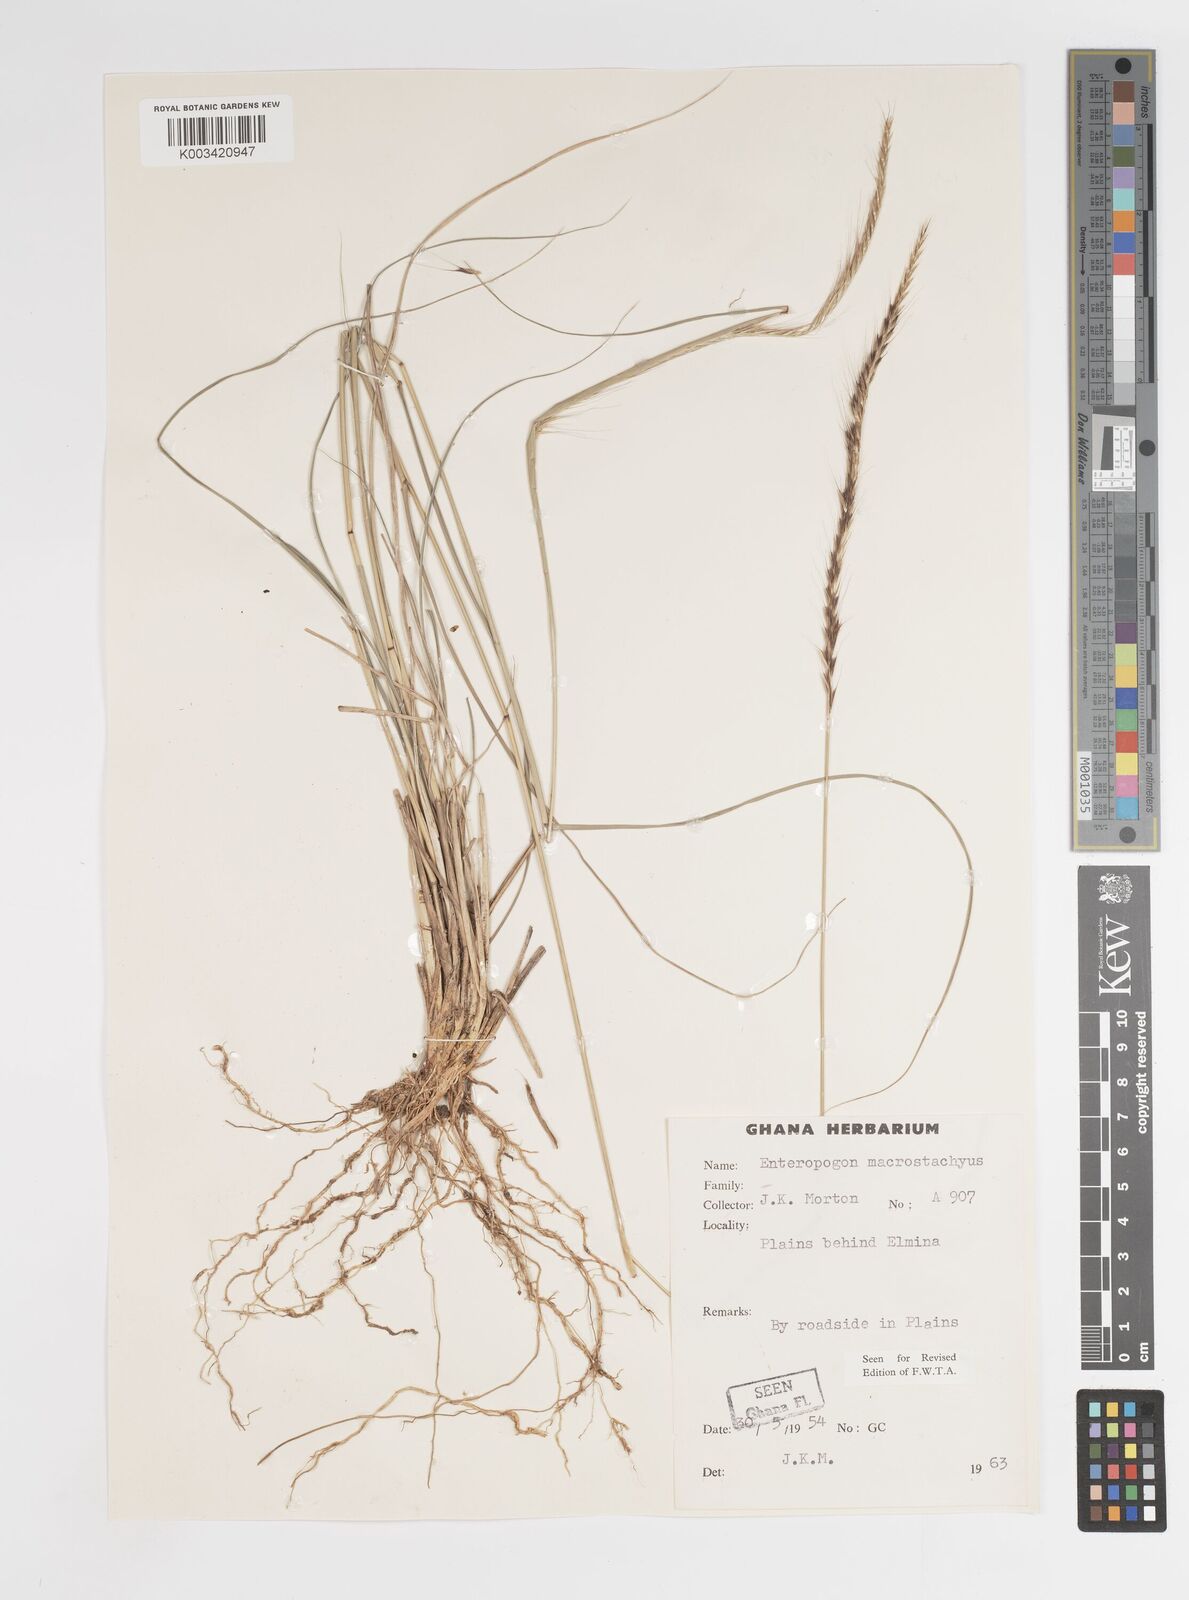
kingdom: Plantae
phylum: Tracheophyta
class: Liliopsida
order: Poales
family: Poaceae
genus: Enteropogon
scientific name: Enteropogon macrostachyus
